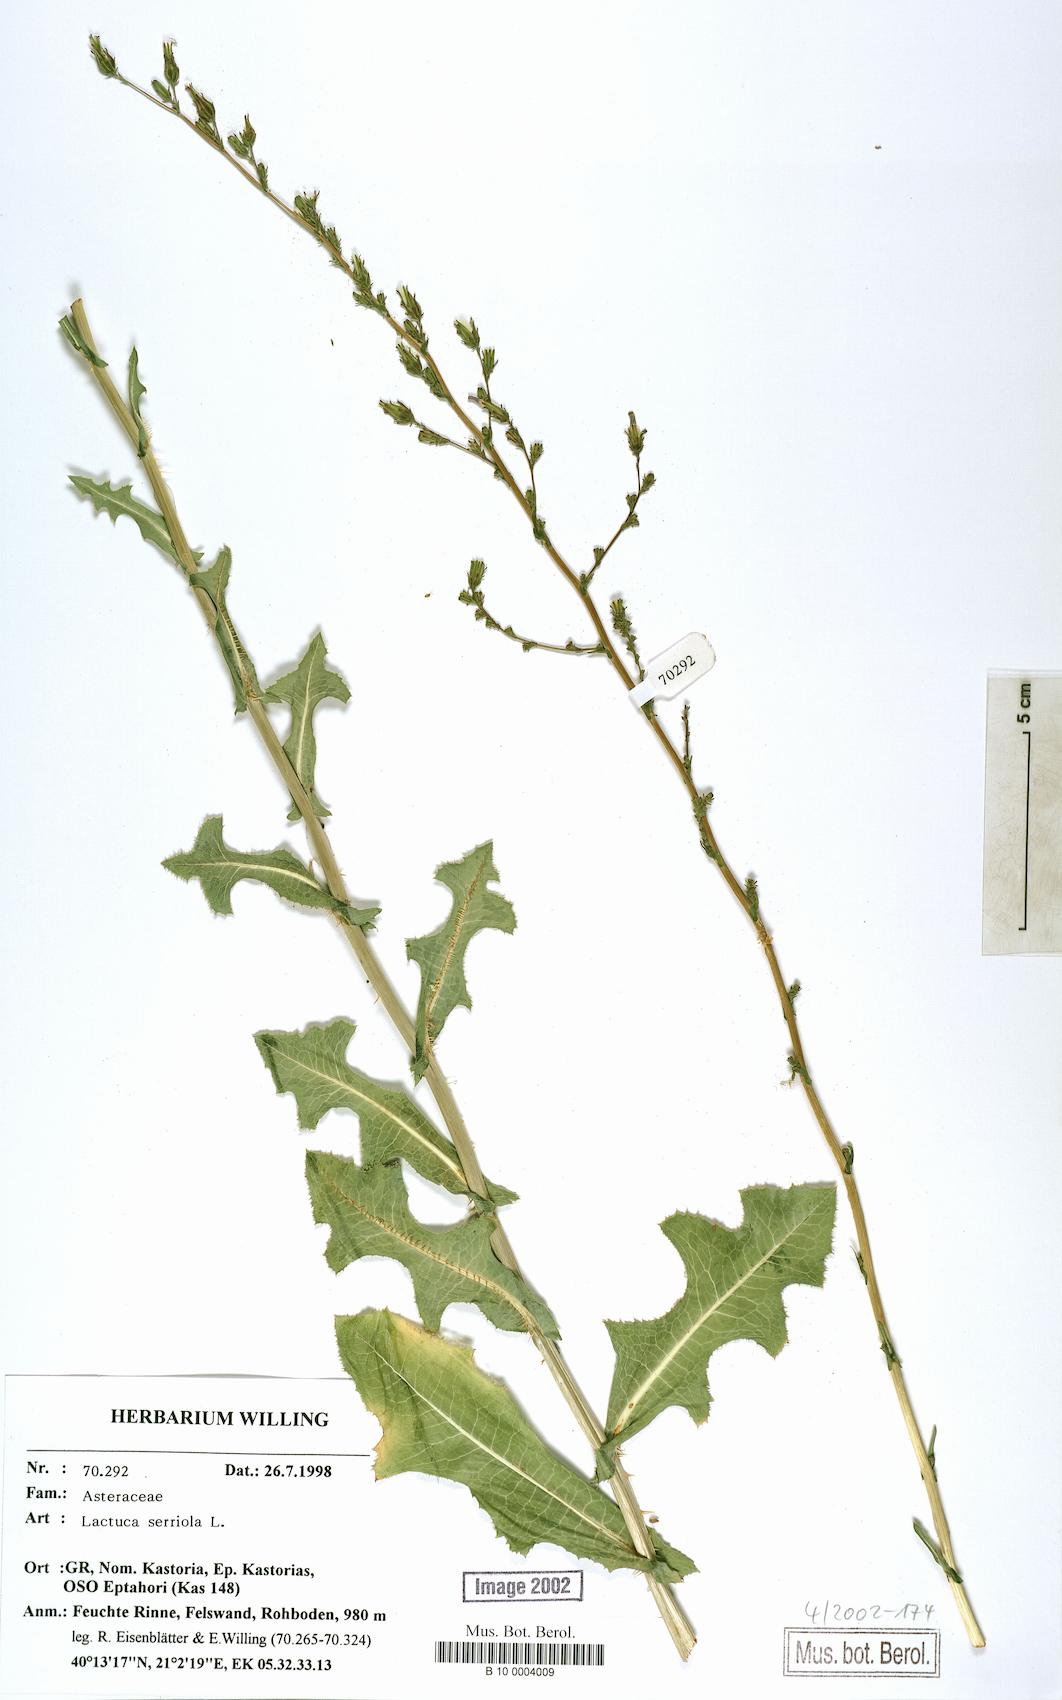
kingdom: Plantae
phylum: Tracheophyta
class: Magnoliopsida
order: Asterales
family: Asteraceae
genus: Lactuca
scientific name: Lactuca serriola
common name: Prickly lettuce
